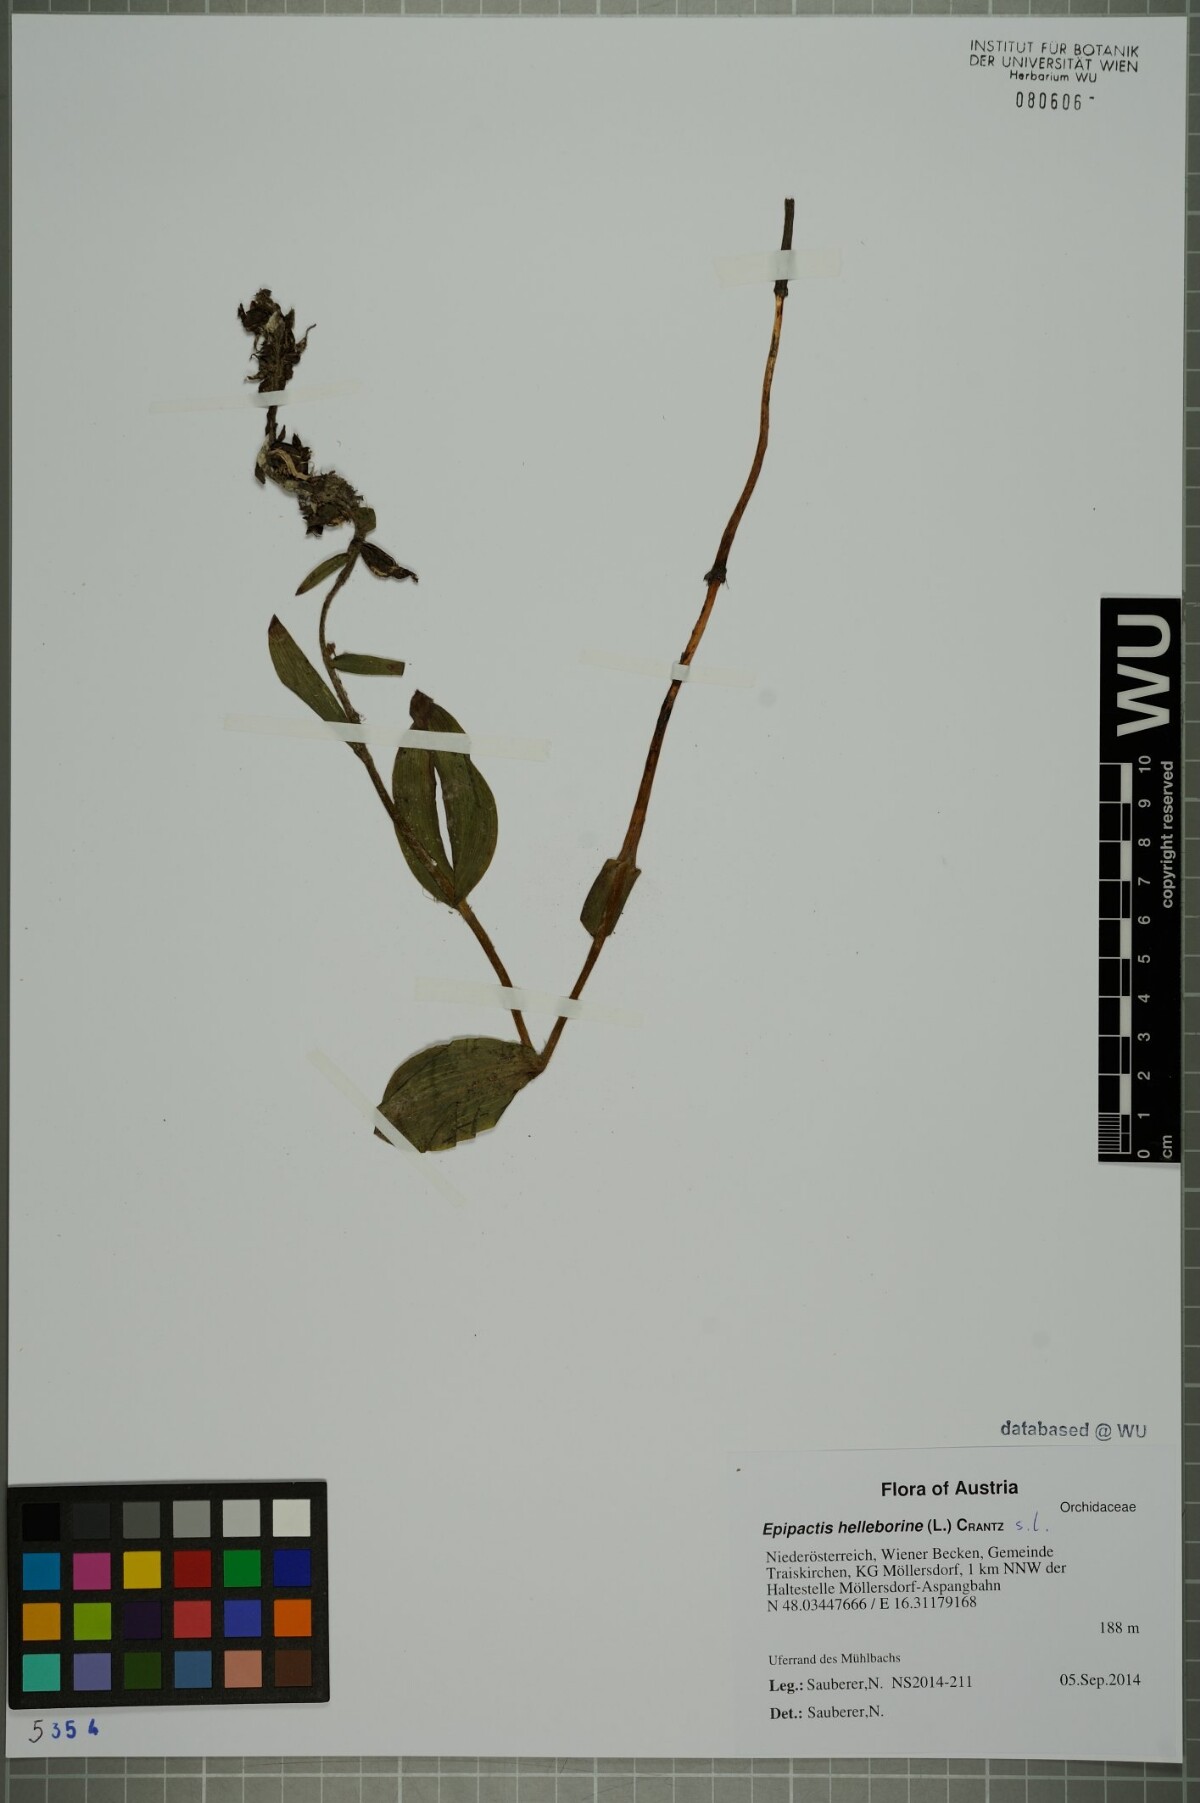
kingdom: Plantae
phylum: Tracheophyta
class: Liliopsida
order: Asparagales
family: Orchidaceae
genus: Epipactis
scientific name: Epipactis helleborine
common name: Broad-leaved helleborine
